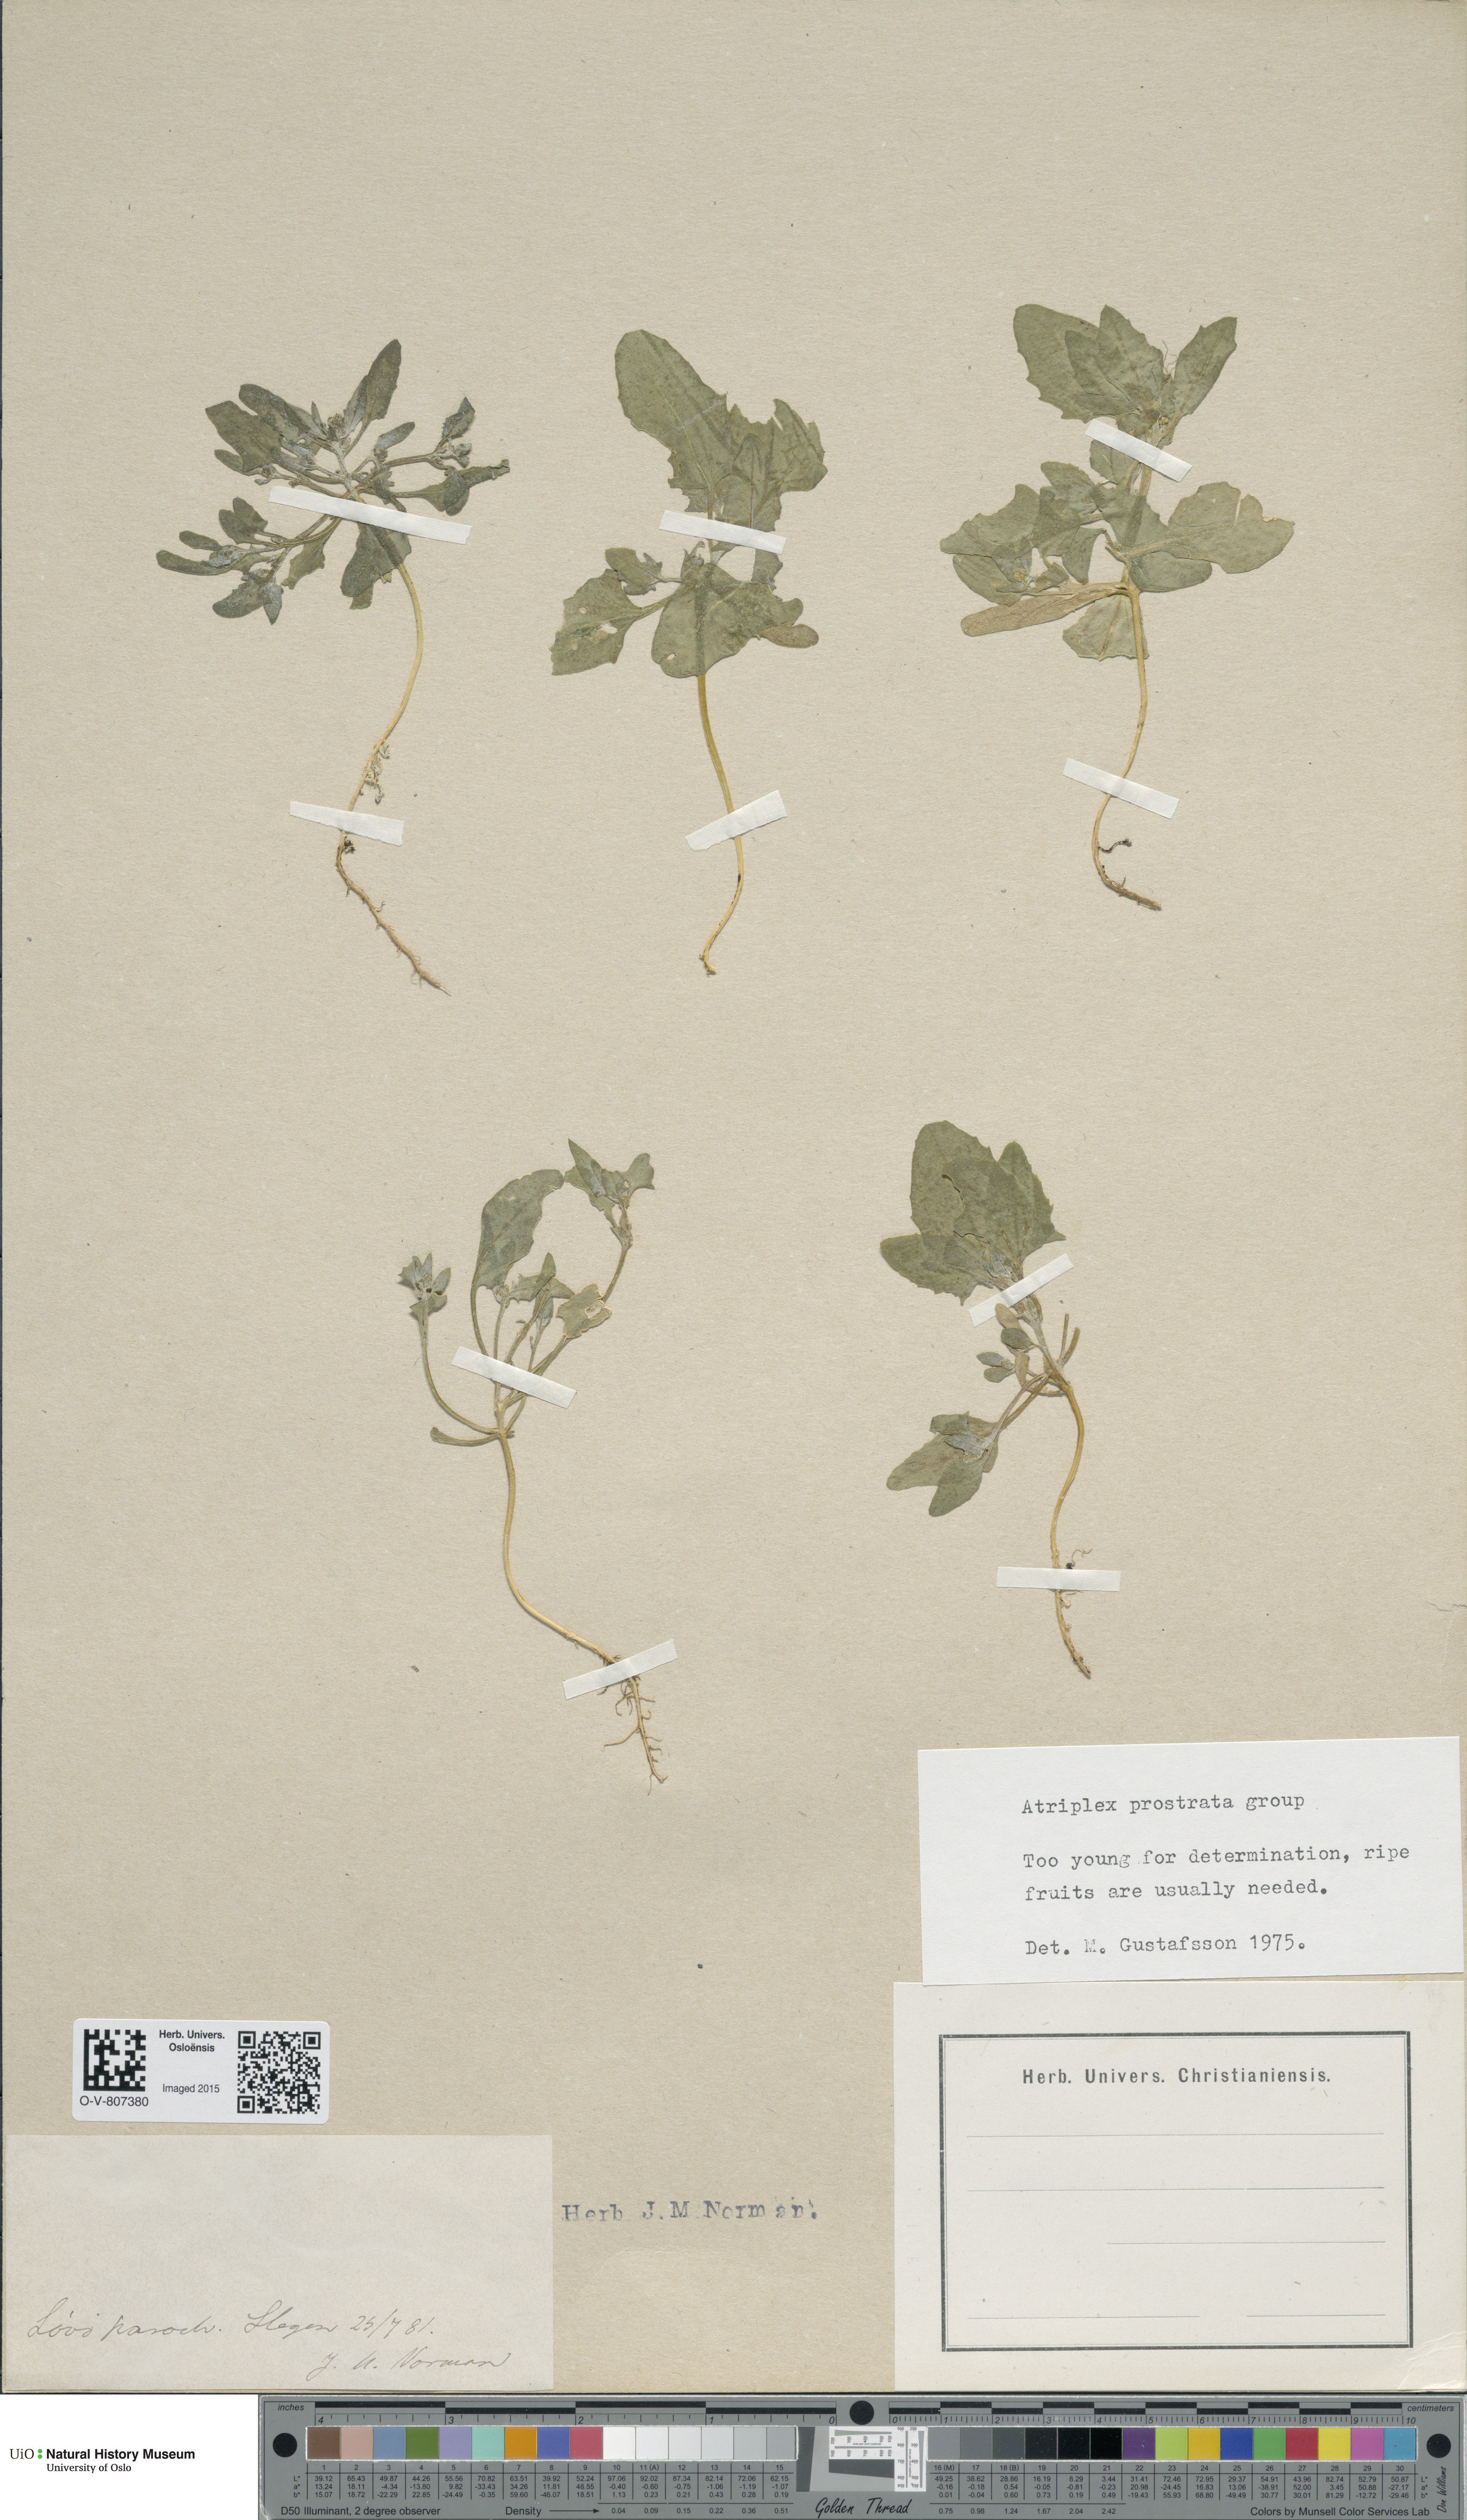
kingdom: Plantae
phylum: Tracheophyta
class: Magnoliopsida
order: Caryophyllales
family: Amaranthaceae
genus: Atriplex
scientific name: Atriplex prostrata
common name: Spear-leaved orache
